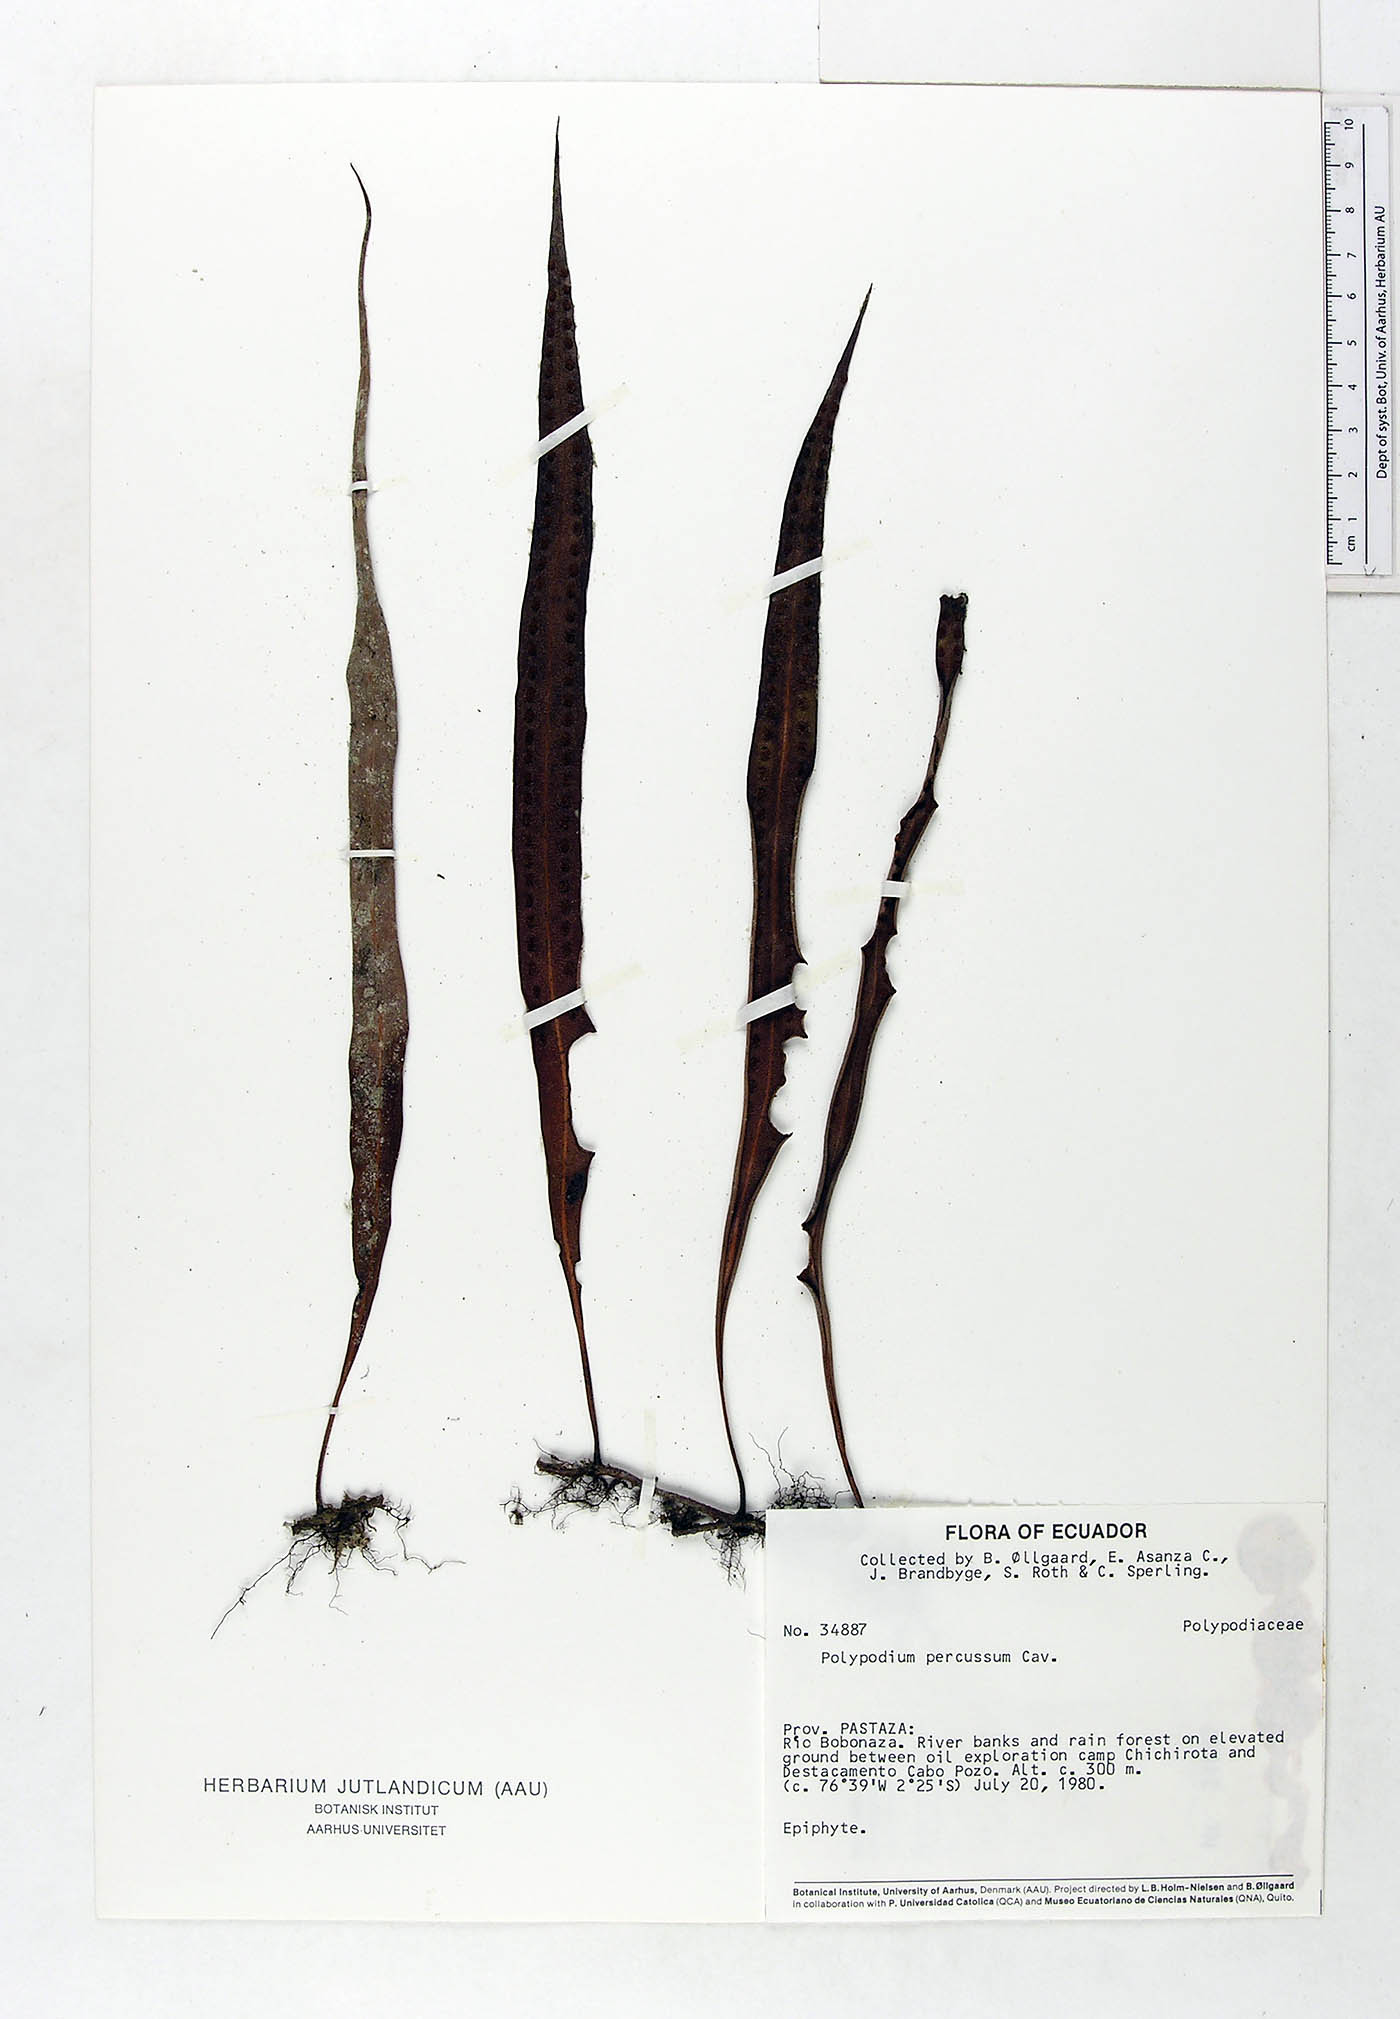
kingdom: Plantae
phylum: Tracheophyta
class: Polypodiopsida
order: Polypodiales
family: Polypodiaceae
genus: Microgramma
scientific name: Microgramma percussa
